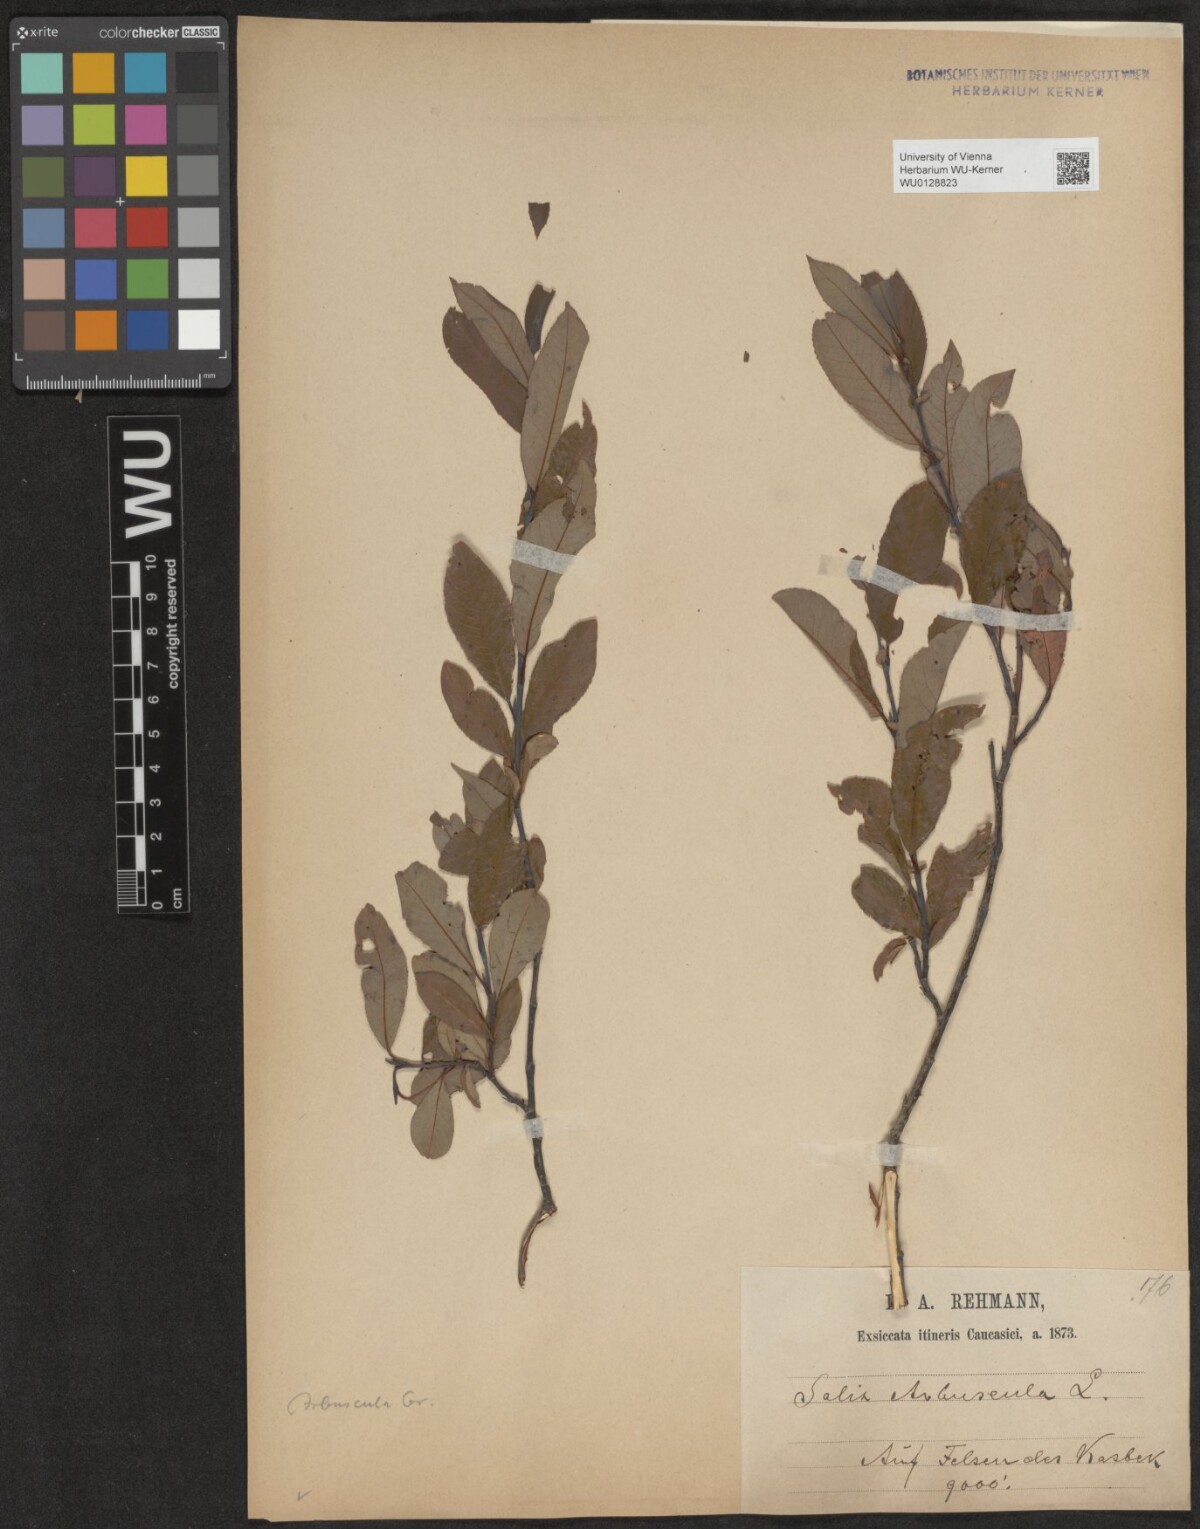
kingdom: Plantae
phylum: Tracheophyta
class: Magnoliopsida
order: Malpighiales
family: Salicaceae
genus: Salix
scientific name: Salix arbuscula
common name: Mountain willow
